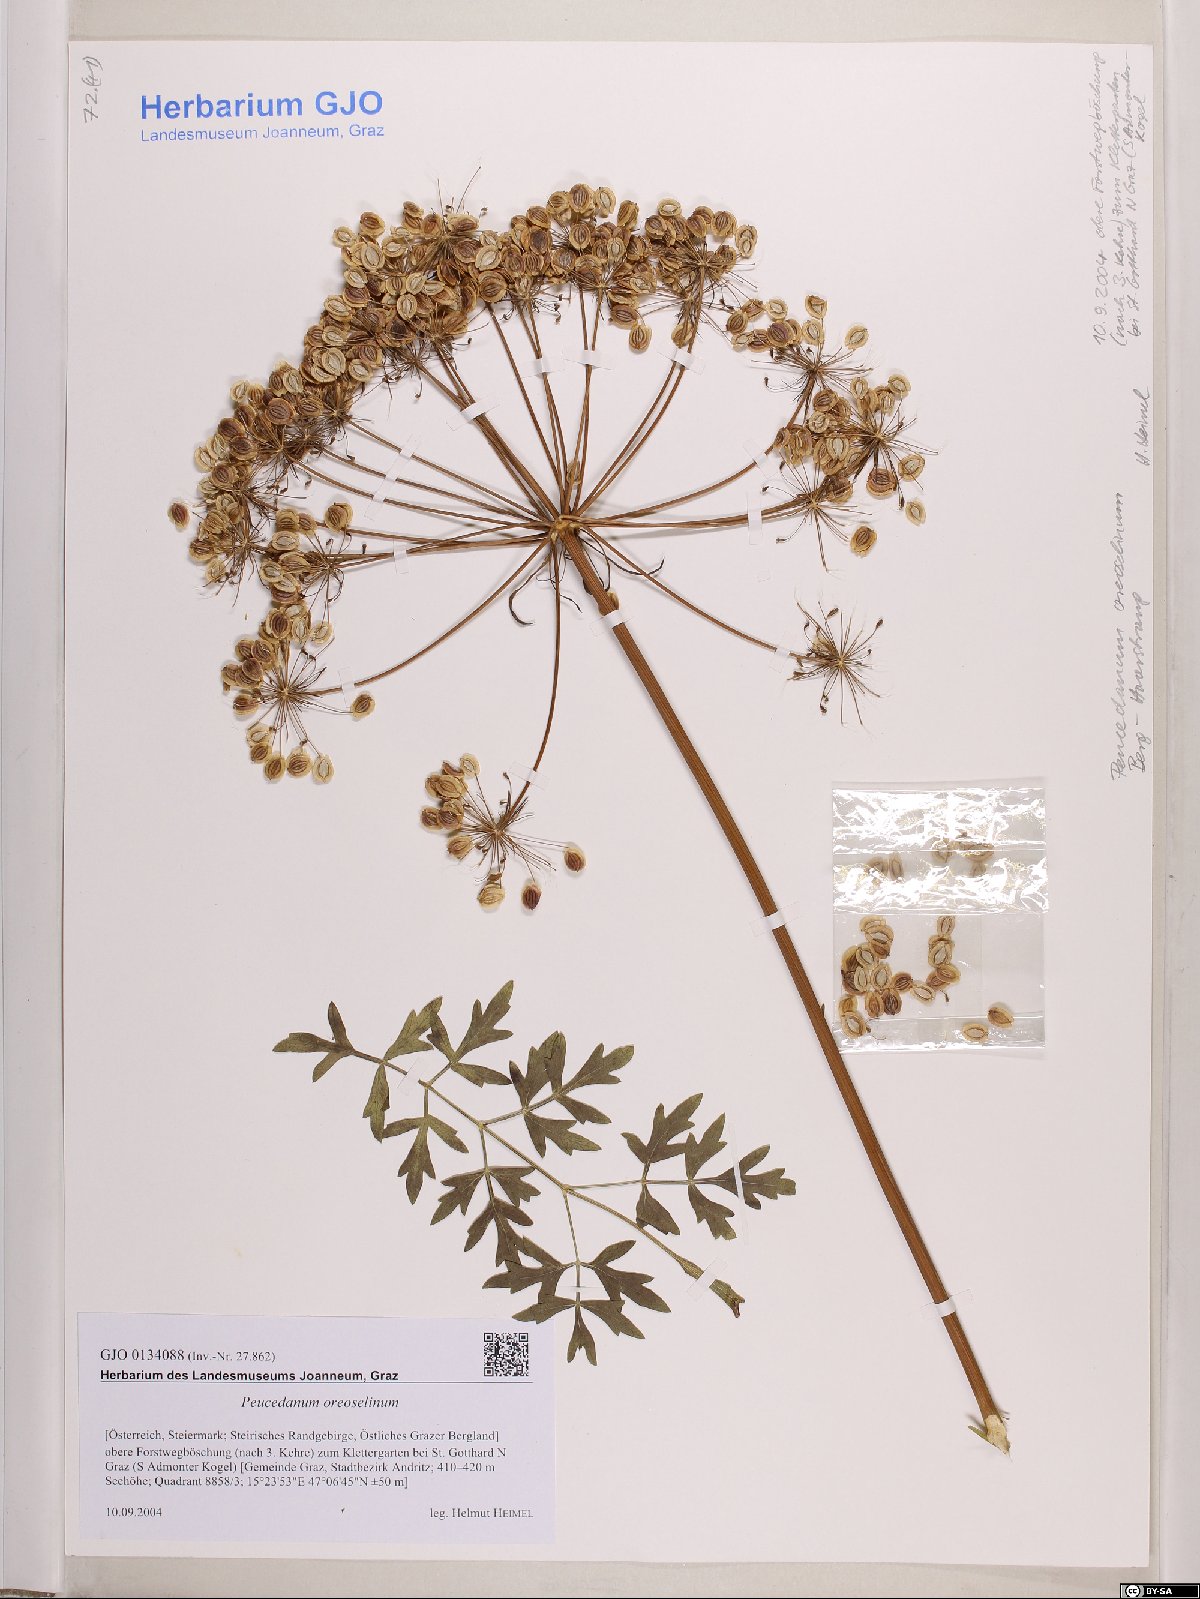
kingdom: Plantae
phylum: Tracheophyta
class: Magnoliopsida
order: Apiales
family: Apiaceae
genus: Oreoselinum
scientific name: Oreoselinum nigrum
